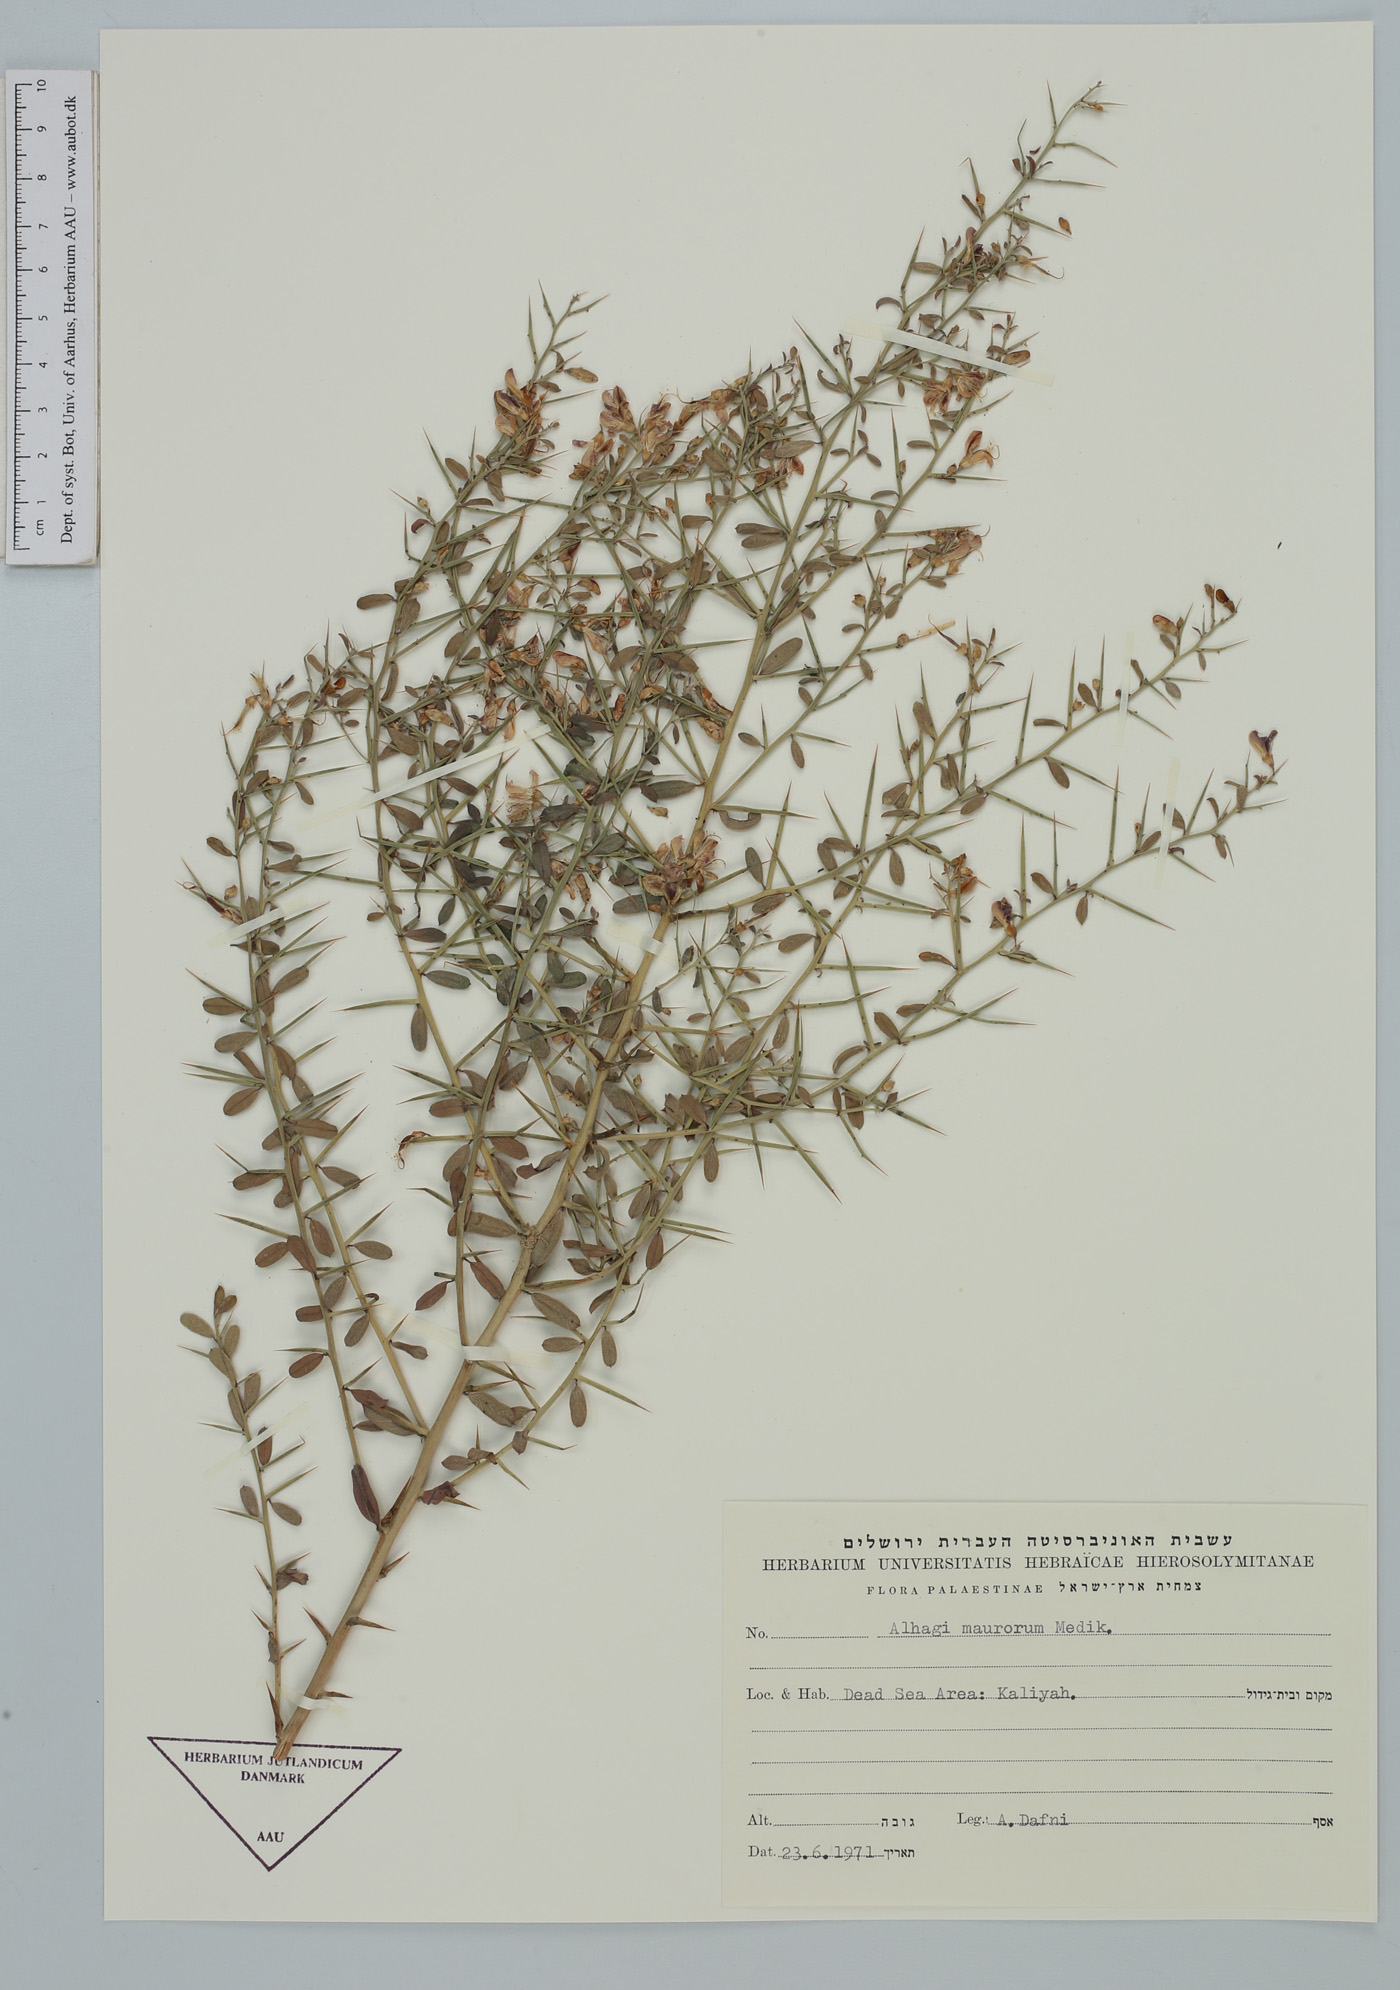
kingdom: Plantae
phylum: Tracheophyta
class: Magnoliopsida
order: Fabales
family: Fabaceae
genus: Alhagi
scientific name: Alhagi maurorum
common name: Camelthorn
